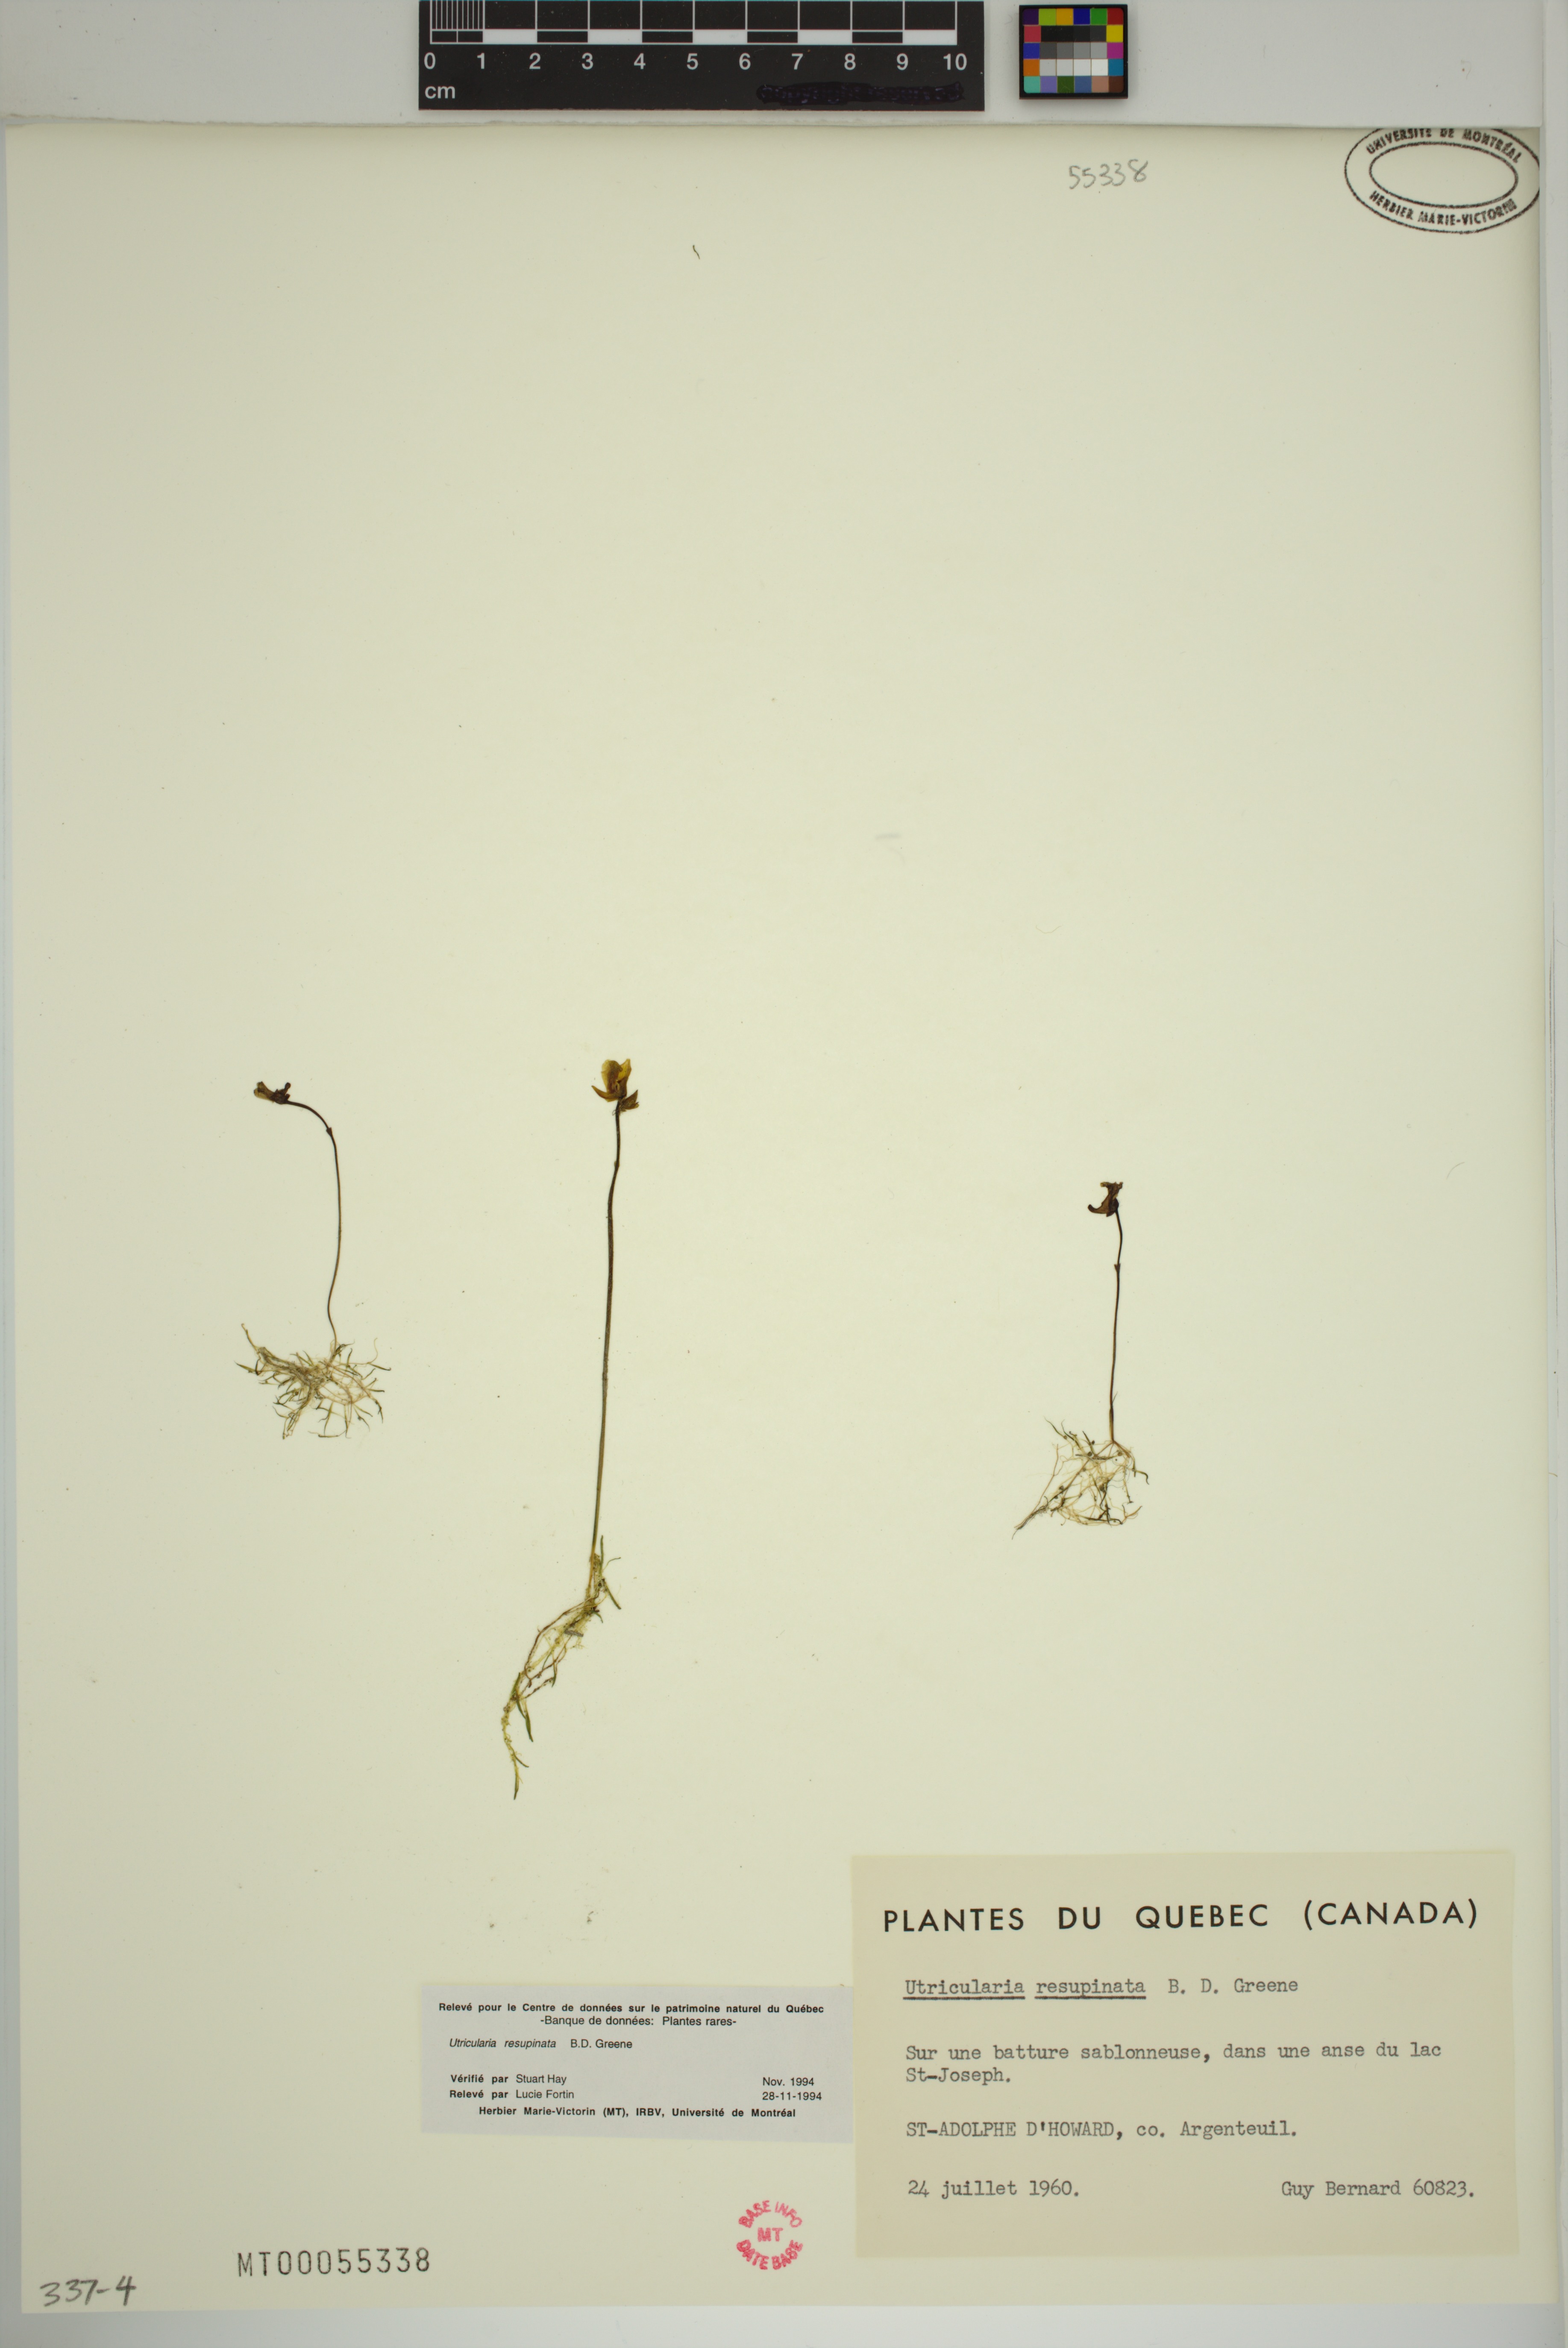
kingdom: Plantae
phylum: Tracheophyta
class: Magnoliopsida
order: Lamiales
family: Lentibulariaceae
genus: Utricularia
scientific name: Utricularia resupinata
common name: Northeastern bladderwort
